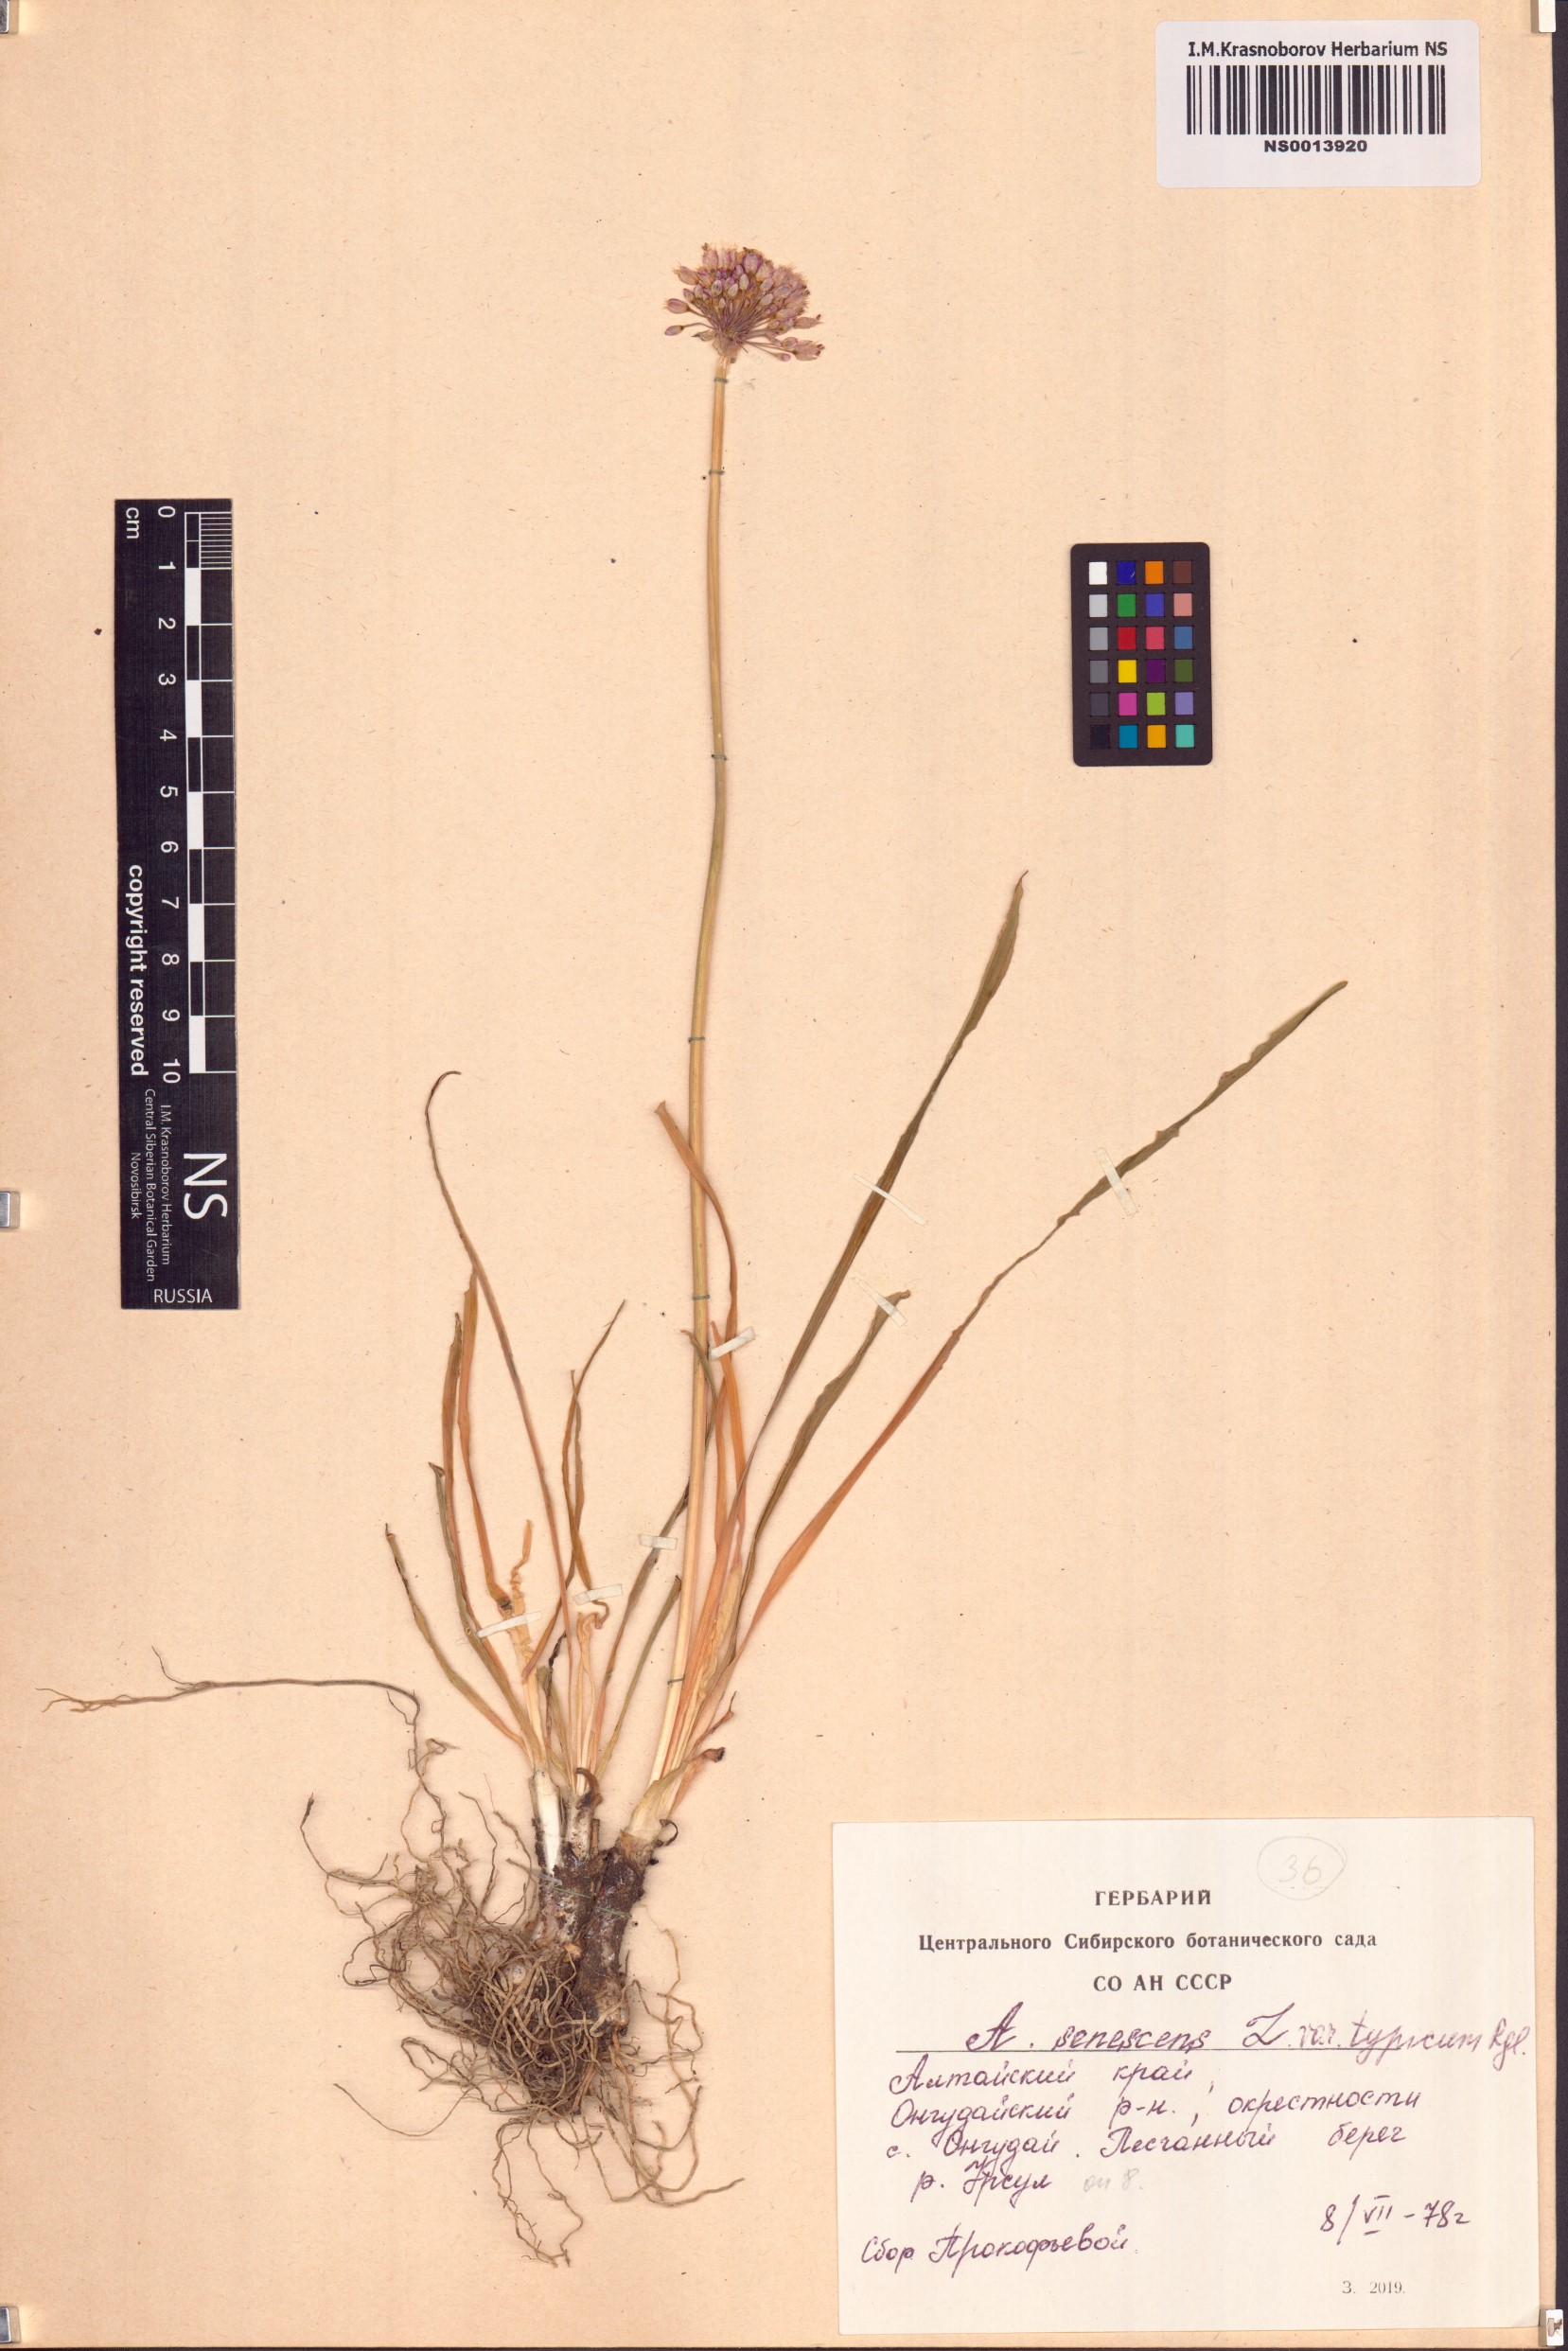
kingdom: Plantae
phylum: Tracheophyta
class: Liliopsida
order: Asparagales
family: Amaryllidaceae
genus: Allium
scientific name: Allium senescens
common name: German garlic
